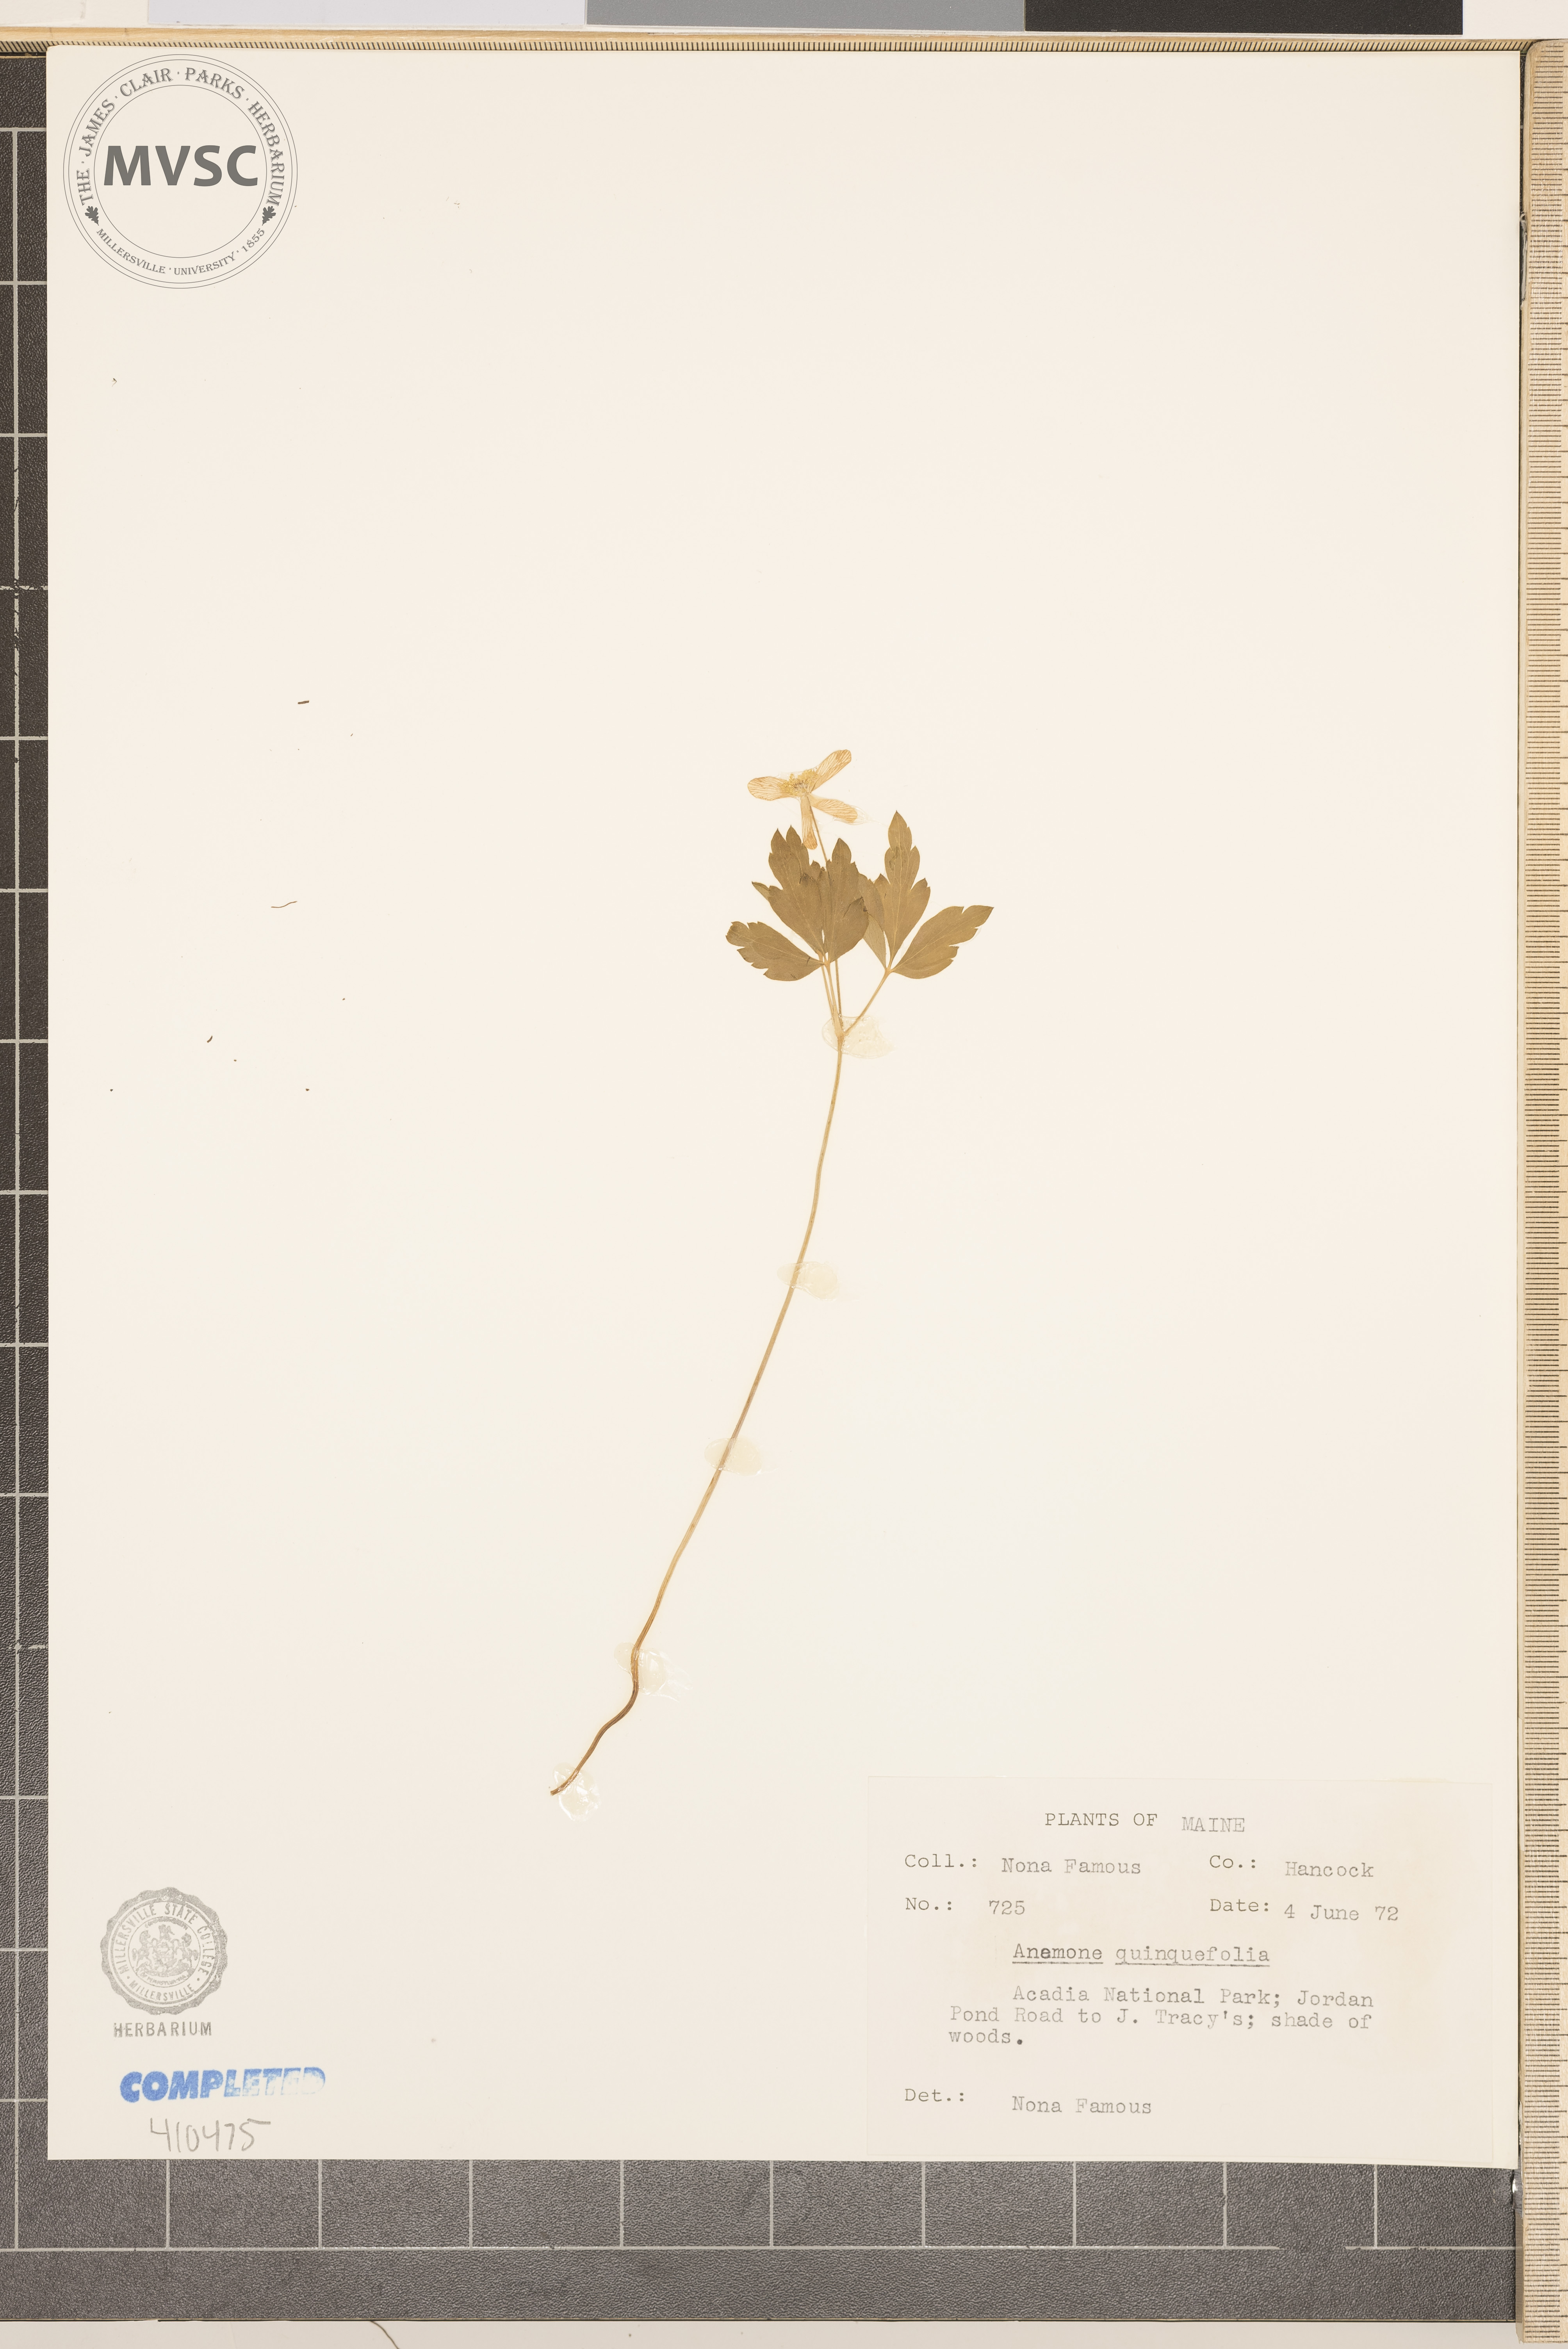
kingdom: Plantae
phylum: Tracheophyta
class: Magnoliopsida
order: Ranunculales
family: Ranunculaceae
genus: Anemone
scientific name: Anemone quinquefolia
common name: Wood anemone
